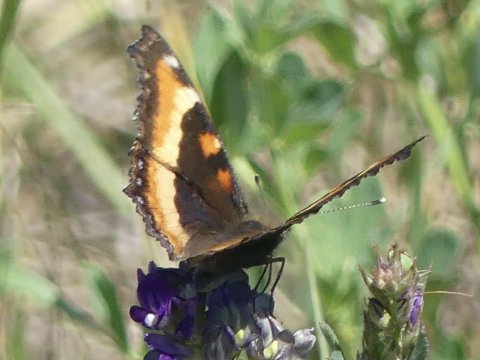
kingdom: Animalia
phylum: Arthropoda
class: Insecta
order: Lepidoptera
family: Nymphalidae
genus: Aglais
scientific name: Aglais milberti
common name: Milbert's Tortoiseshell
